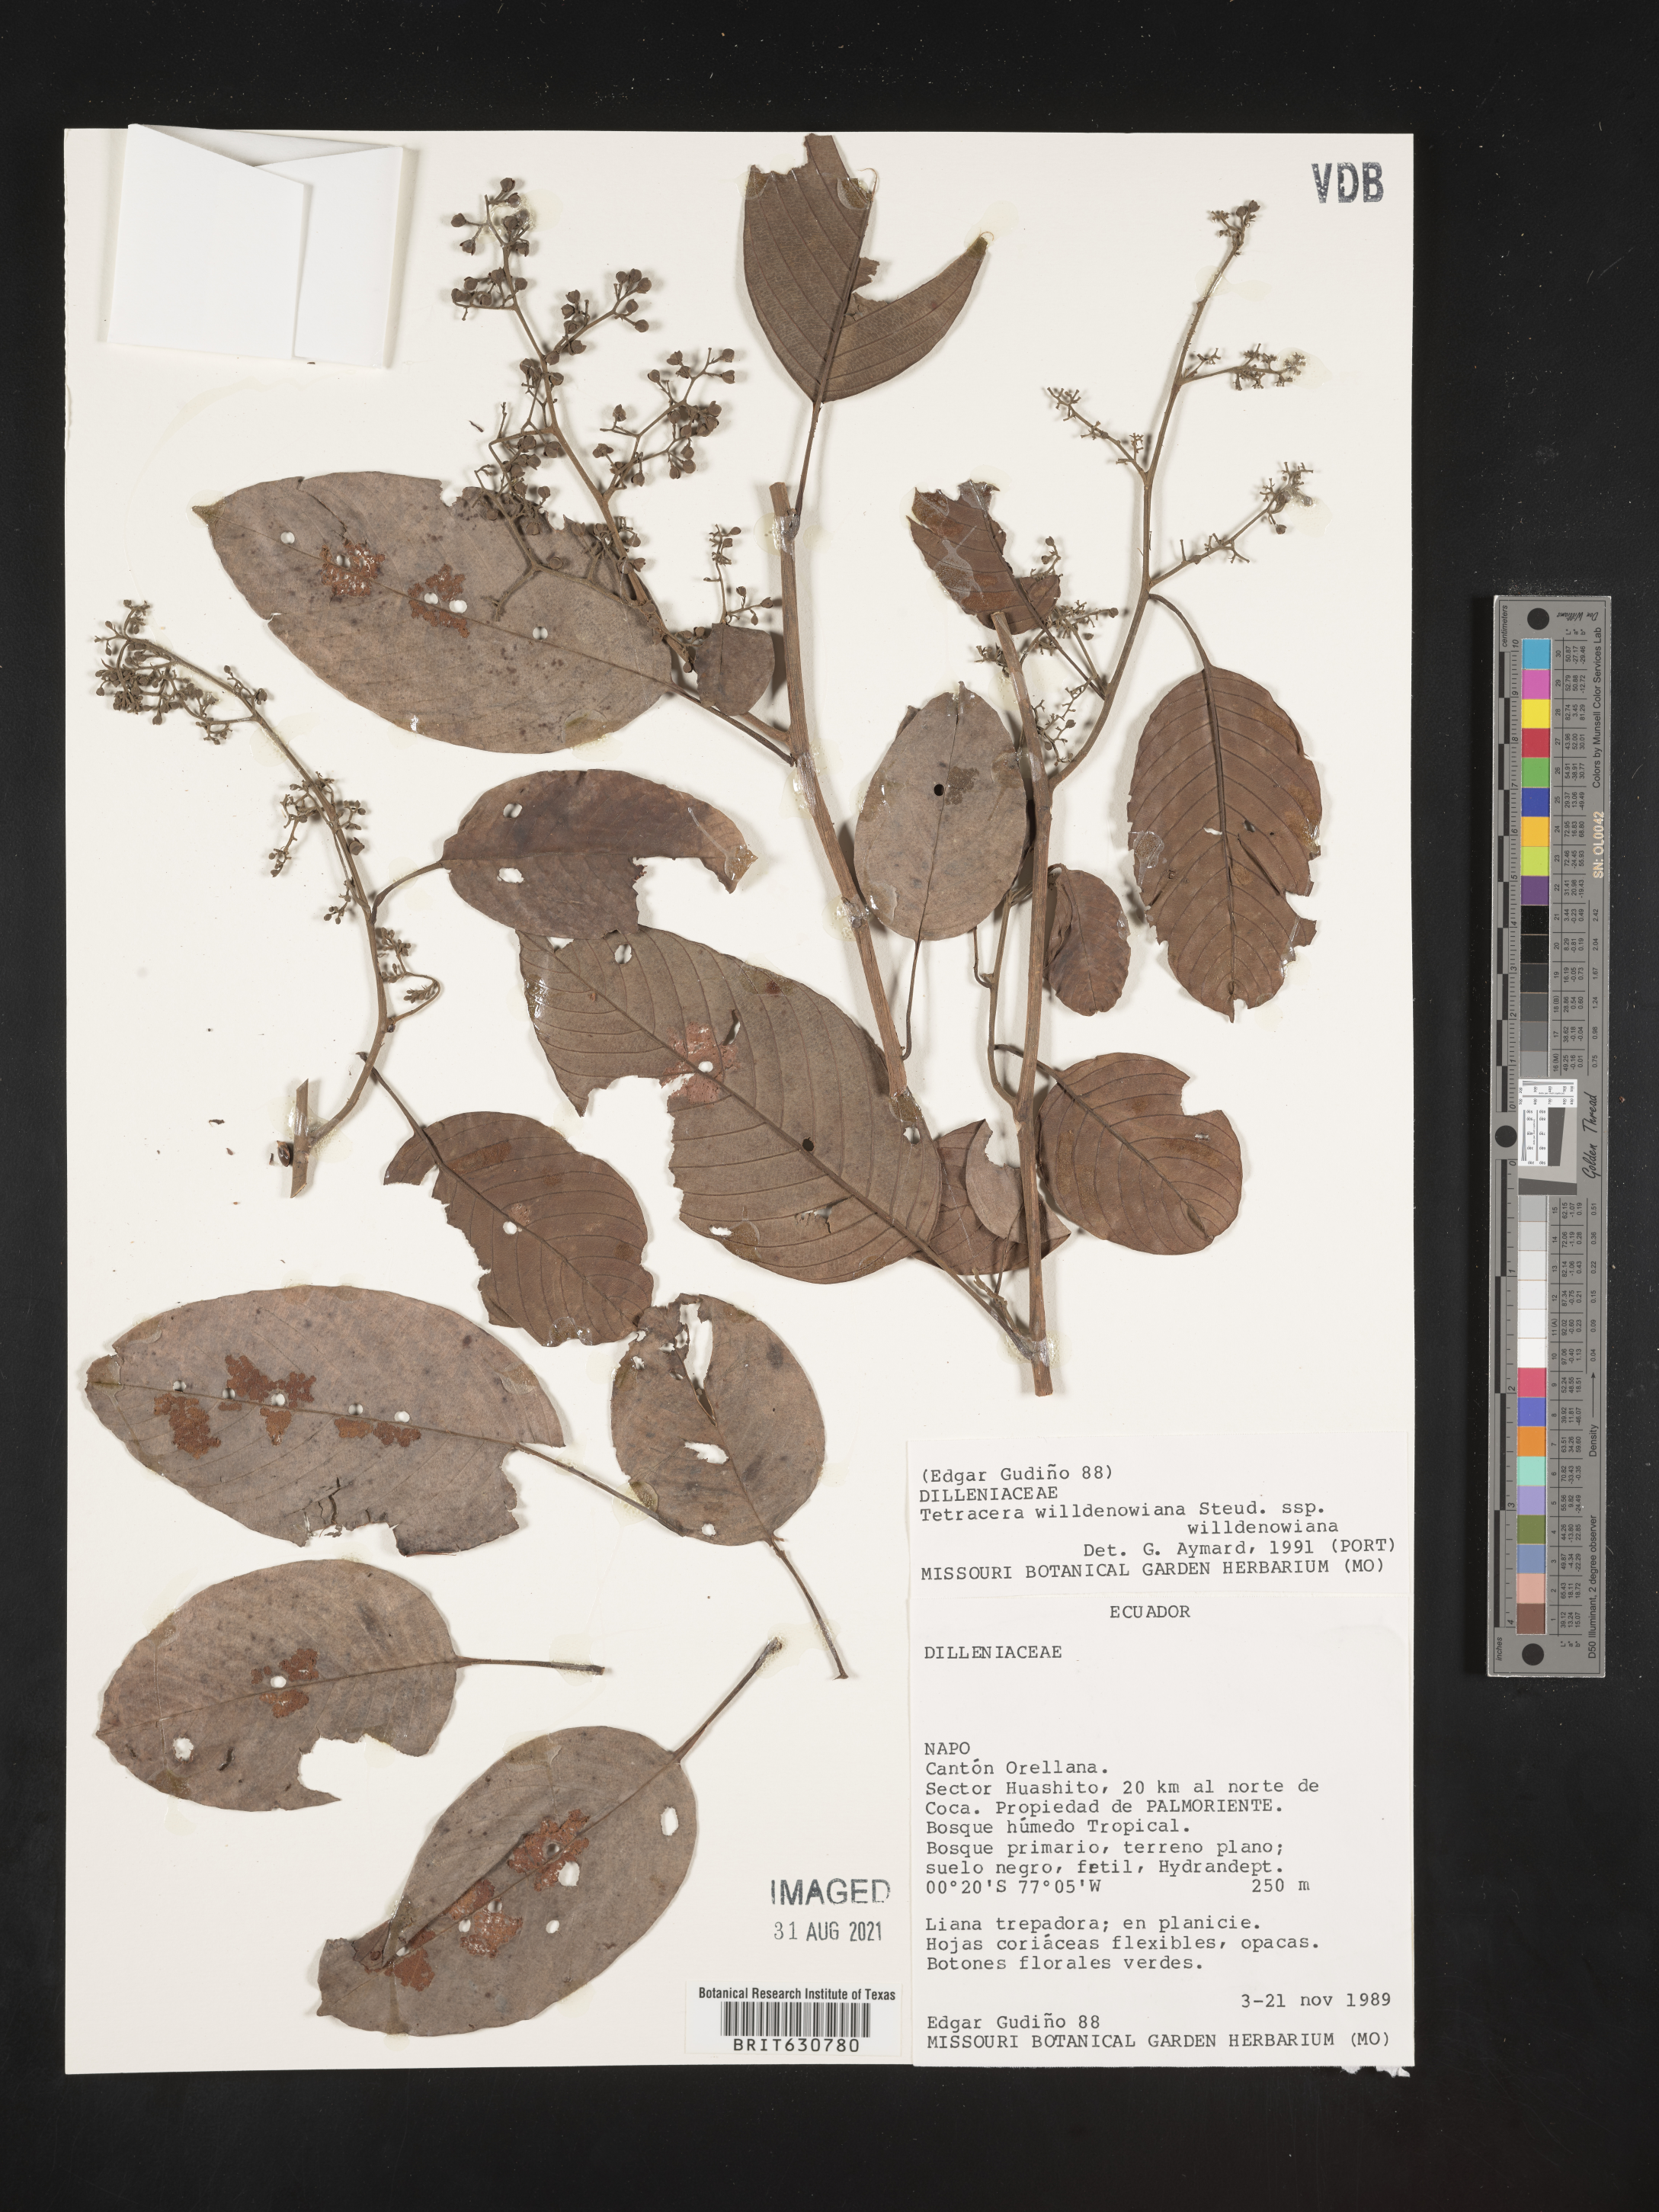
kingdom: Plantae
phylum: Tracheophyta
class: Magnoliopsida
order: Dilleniales
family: Dilleniaceae
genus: Tetracera
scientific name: Tetracera
